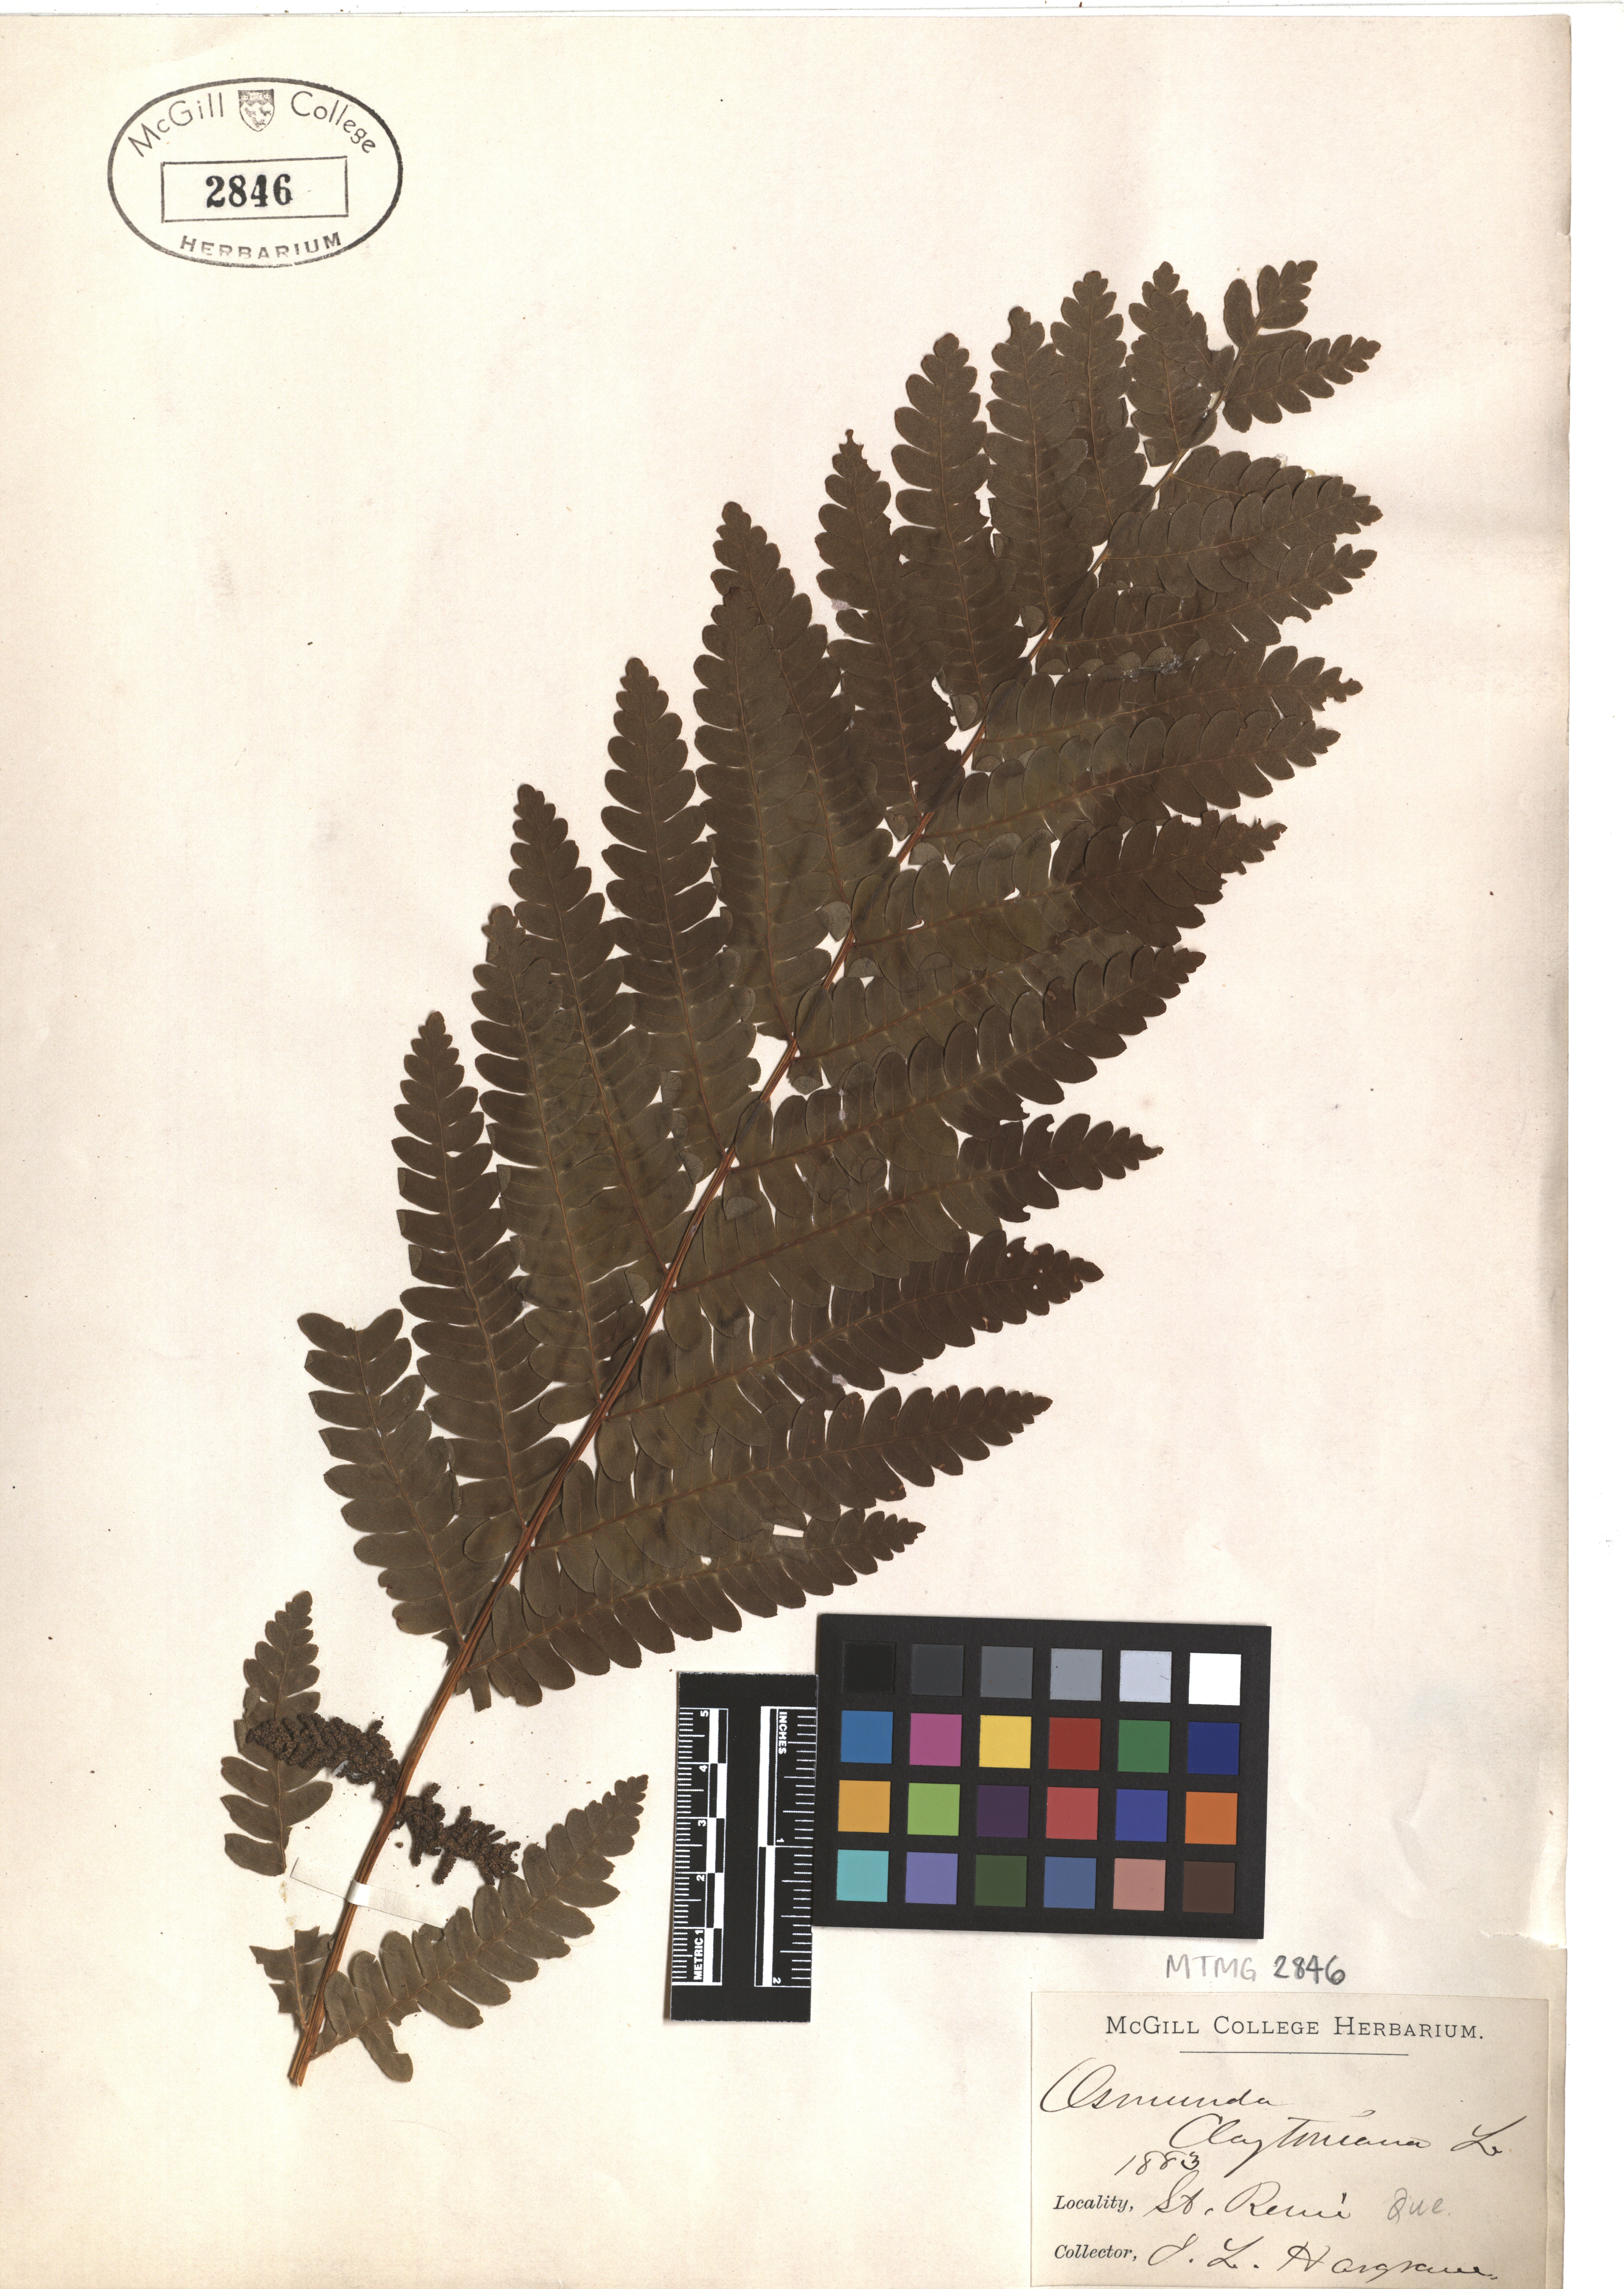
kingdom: Plantae
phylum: Tracheophyta
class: Polypodiopsida
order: Osmundales
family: Osmundaceae
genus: Claytosmunda
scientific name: Claytosmunda claytoniana
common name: Clayton's fern
